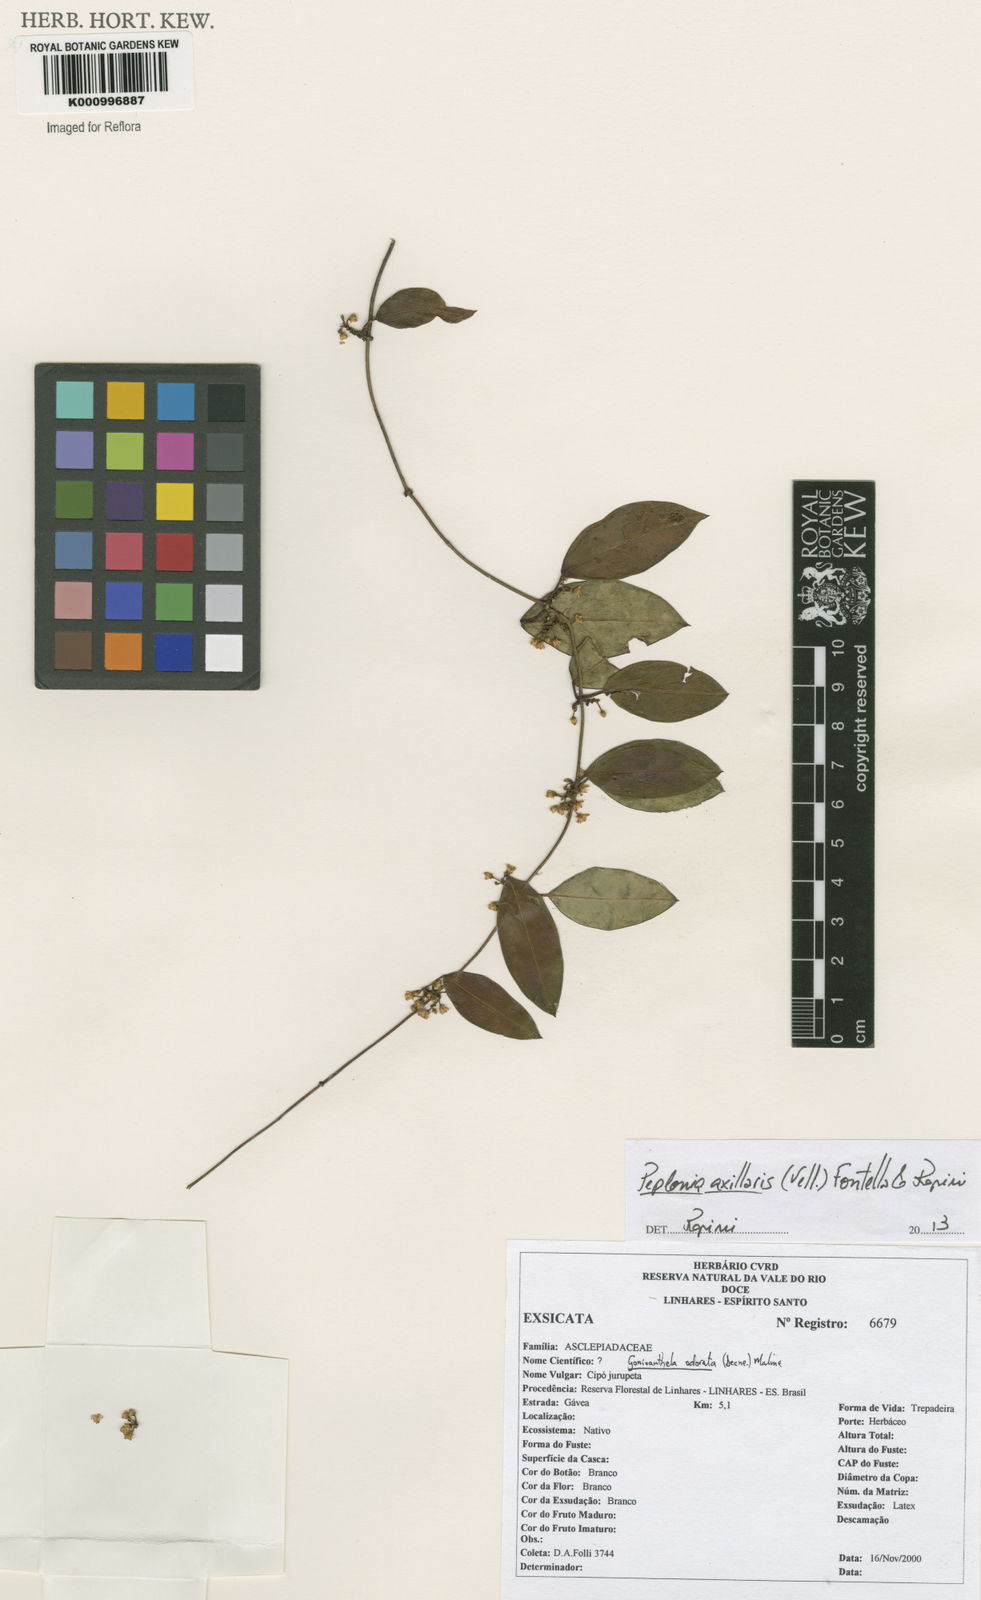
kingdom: Plantae
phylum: Tracheophyta
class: Magnoliopsida
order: Gentianales
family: Apocynaceae
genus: Peplonia
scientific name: Peplonia axillaris
